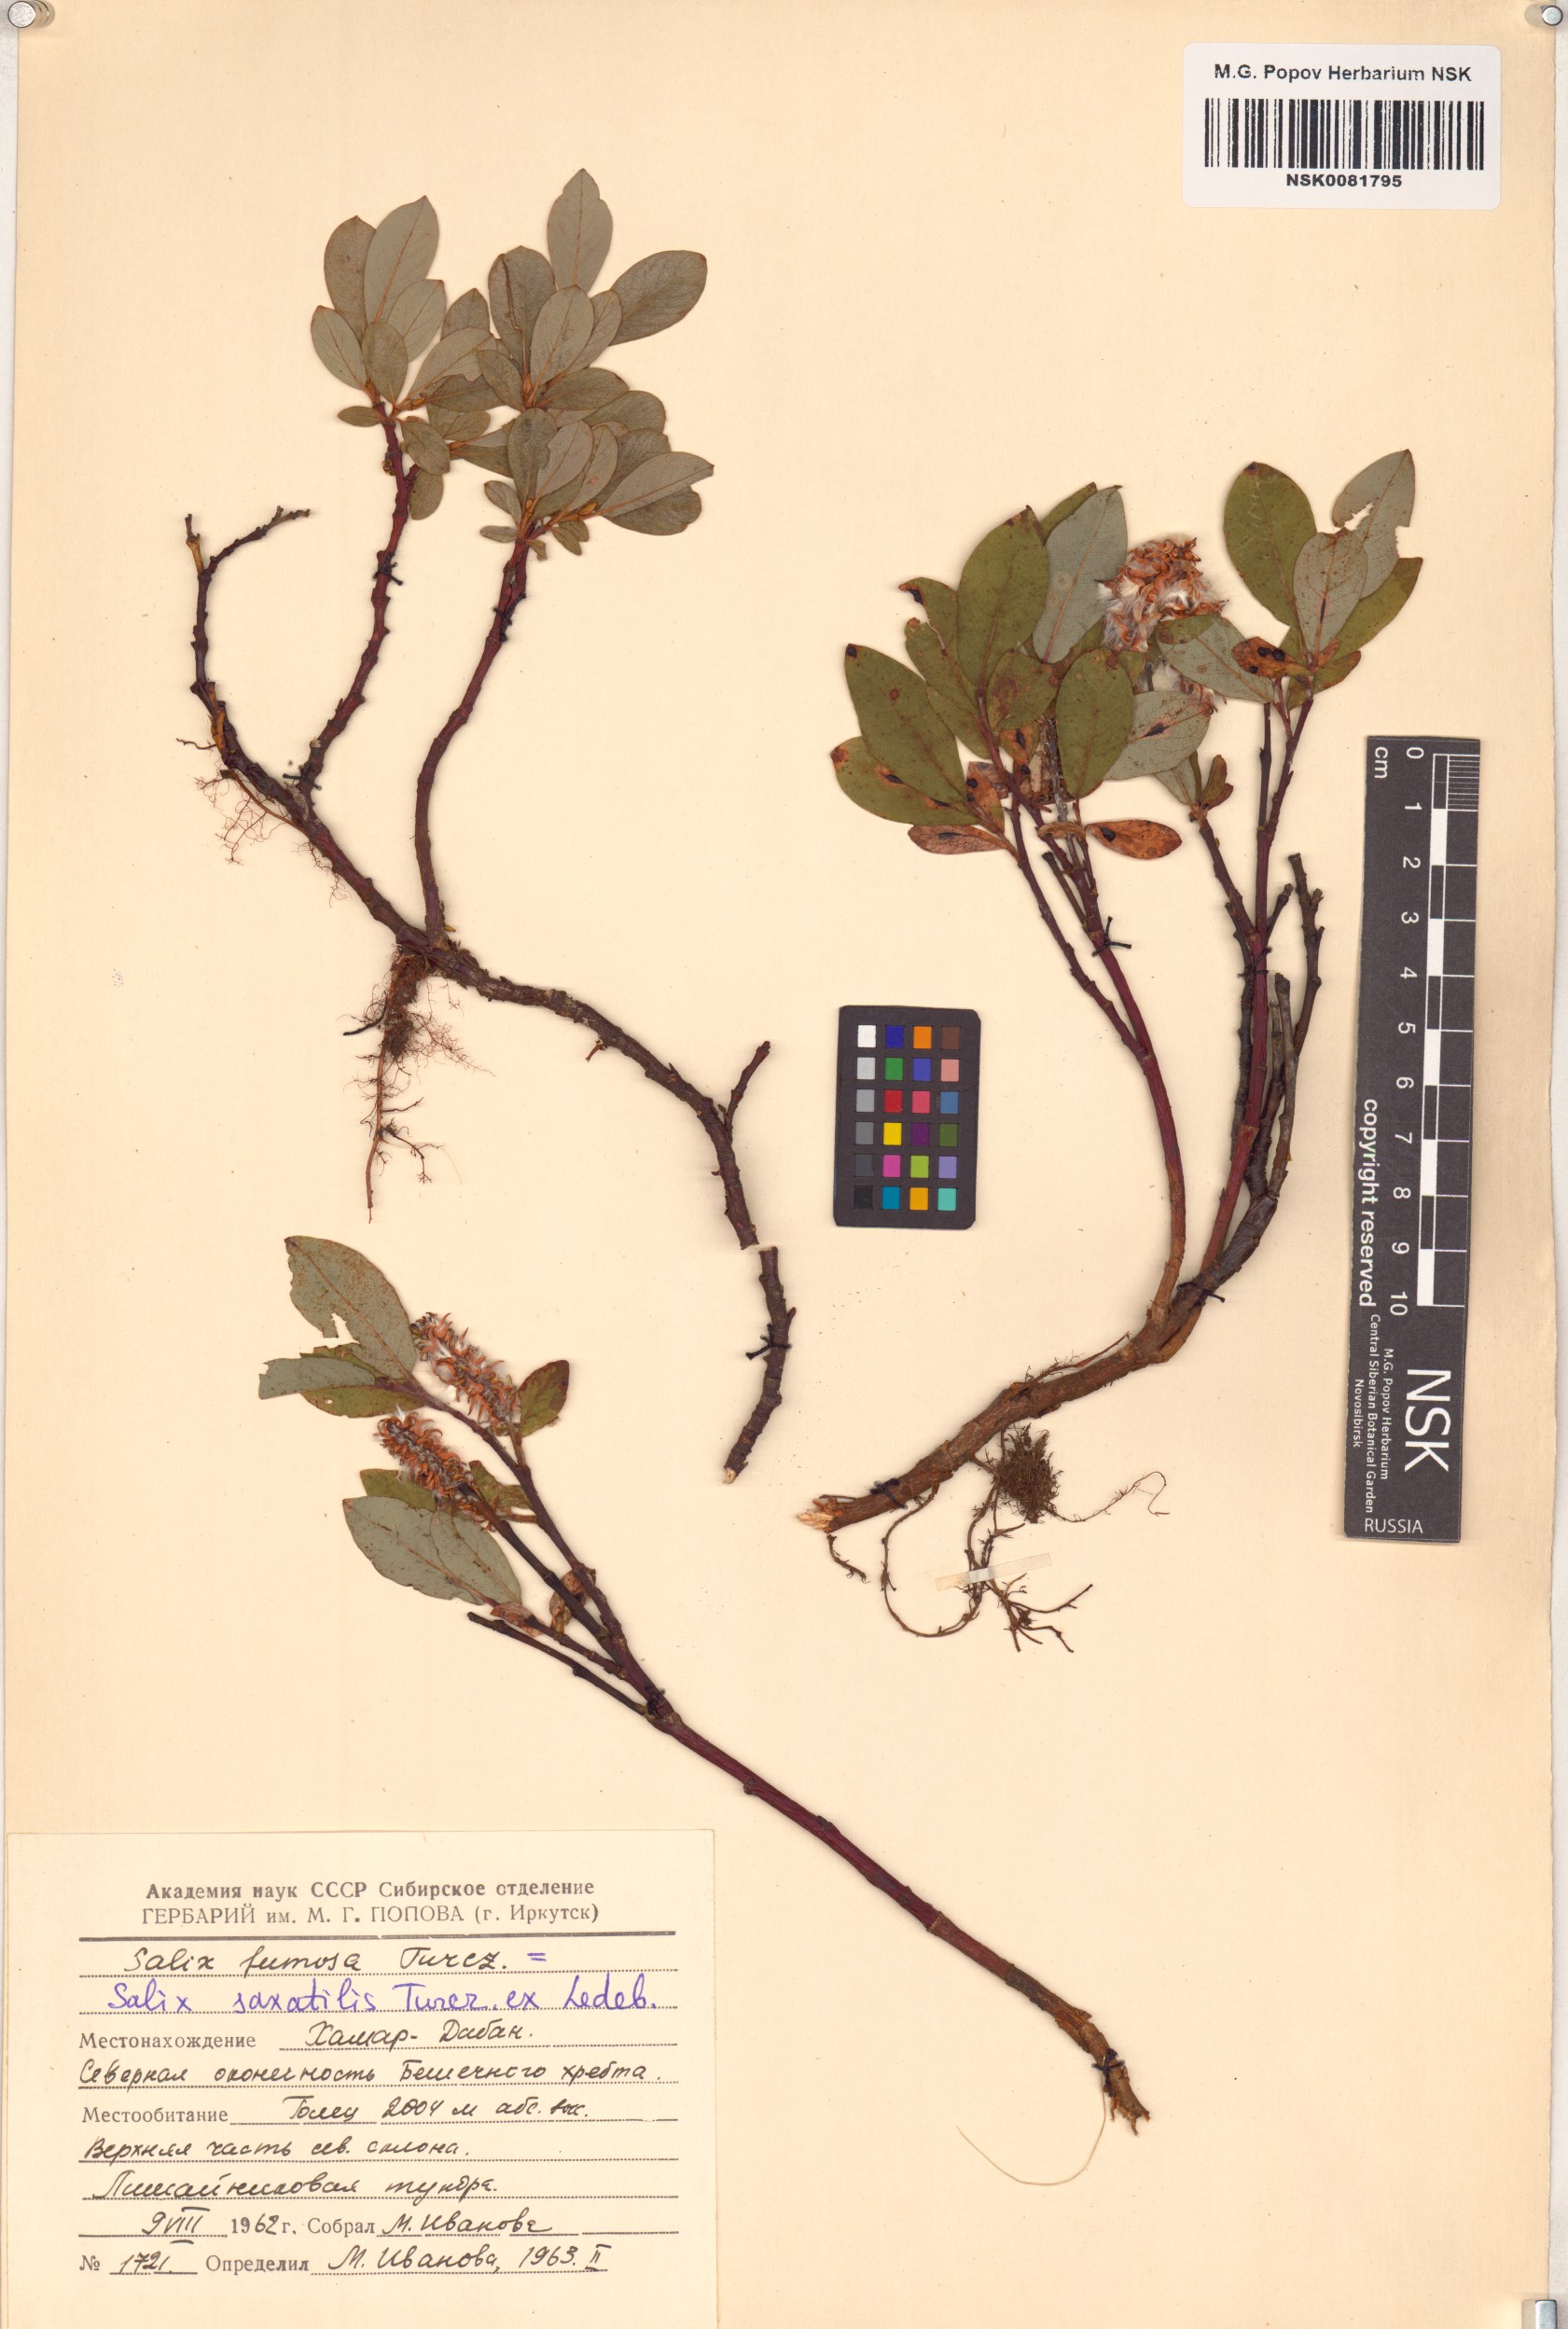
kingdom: Plantae
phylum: Tracheophyta
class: Magnoliopsida
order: Malpighiales
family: Salicaceae
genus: Salix
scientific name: Salix saxatilis
